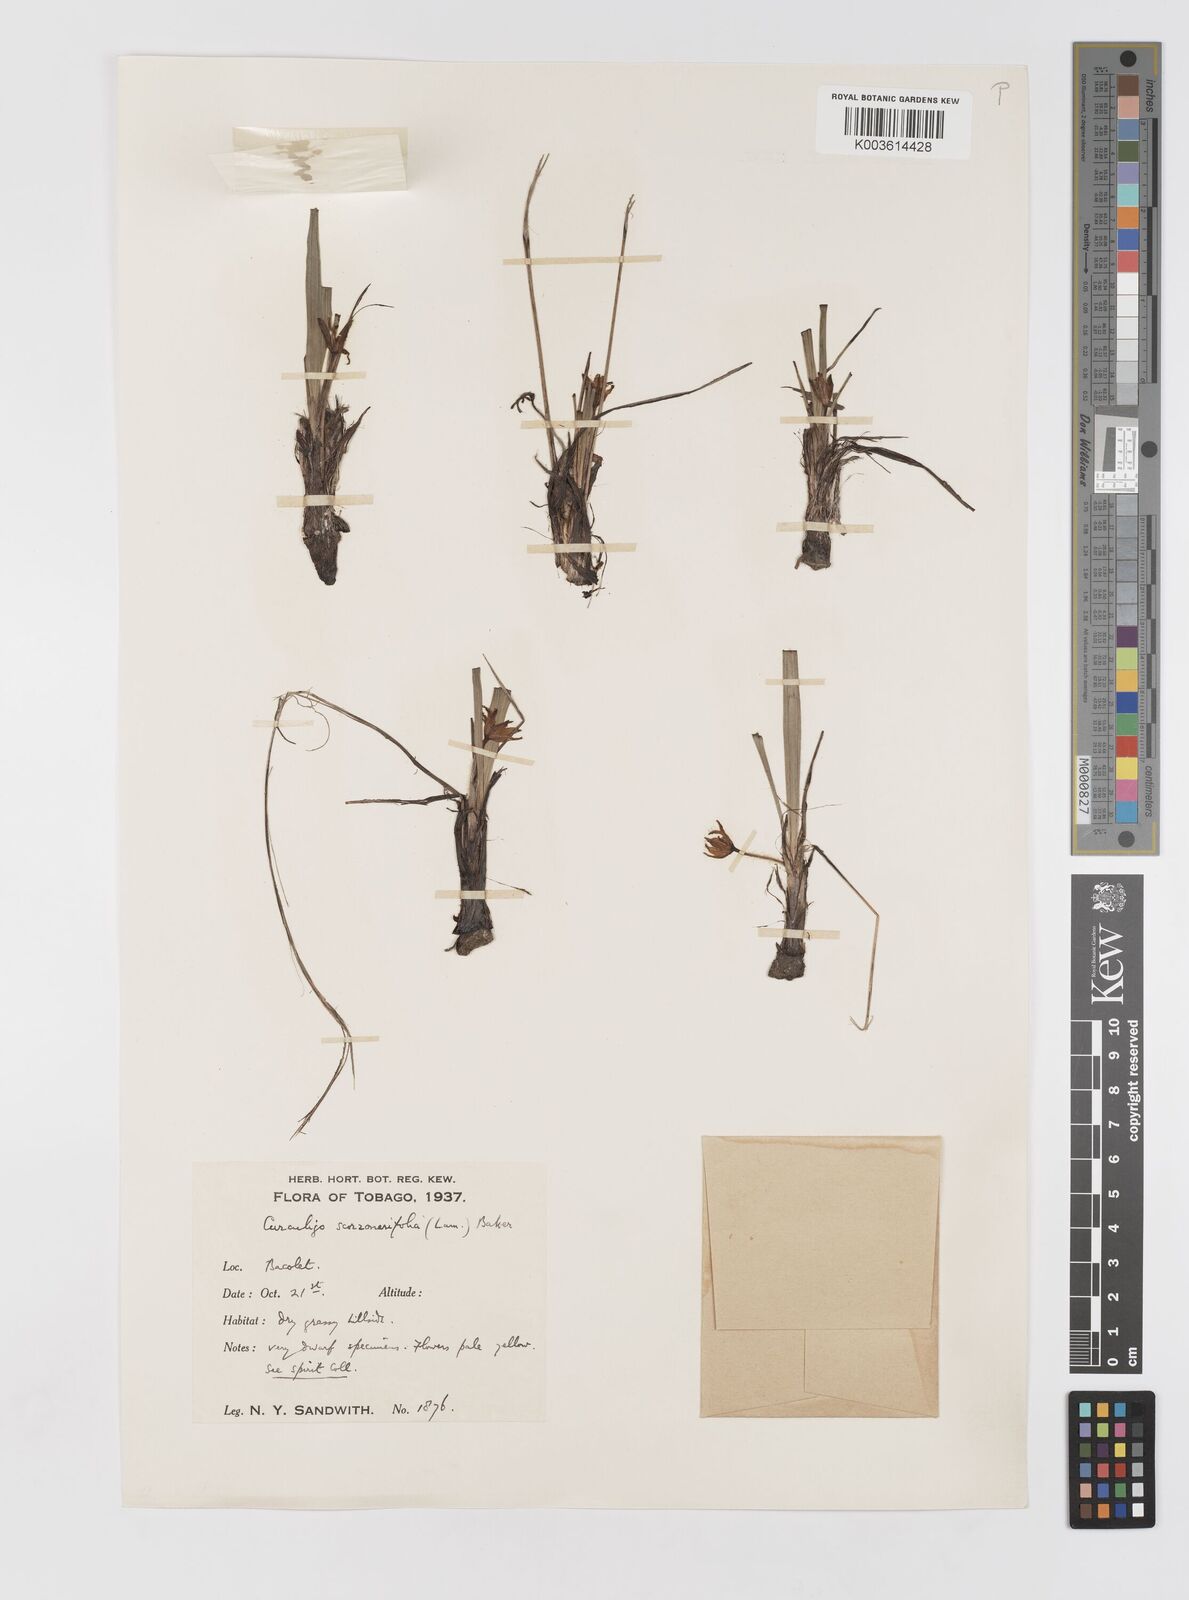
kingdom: Plantae
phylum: Tracheophyta
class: Liliopsida
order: Asparagales
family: Hypoxidaceae
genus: Curculigo
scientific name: Curculigo scorzonerifolia
